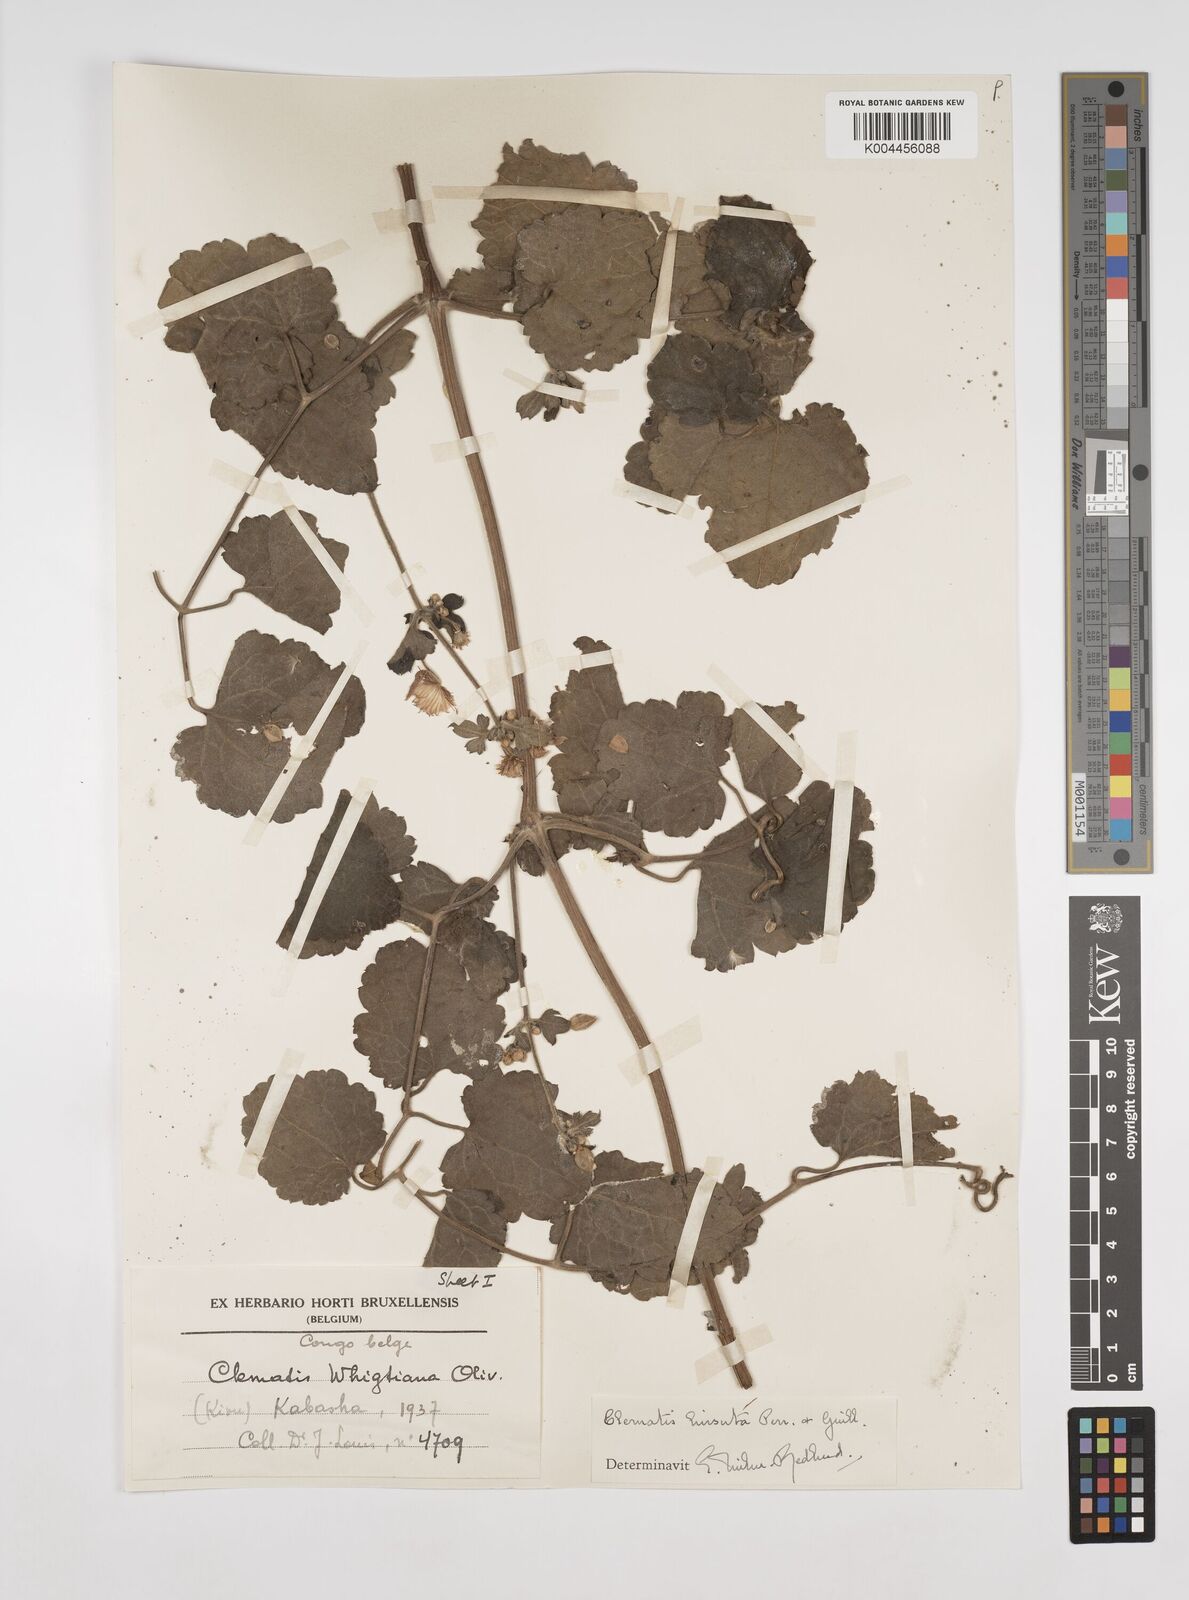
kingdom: Plantae
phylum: Tracheophyta
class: Magnoliopsida
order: Ranunculales
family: Ranunculaceae
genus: Clematis
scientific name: Clematis orientalis
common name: Oriental virgin's-bower
